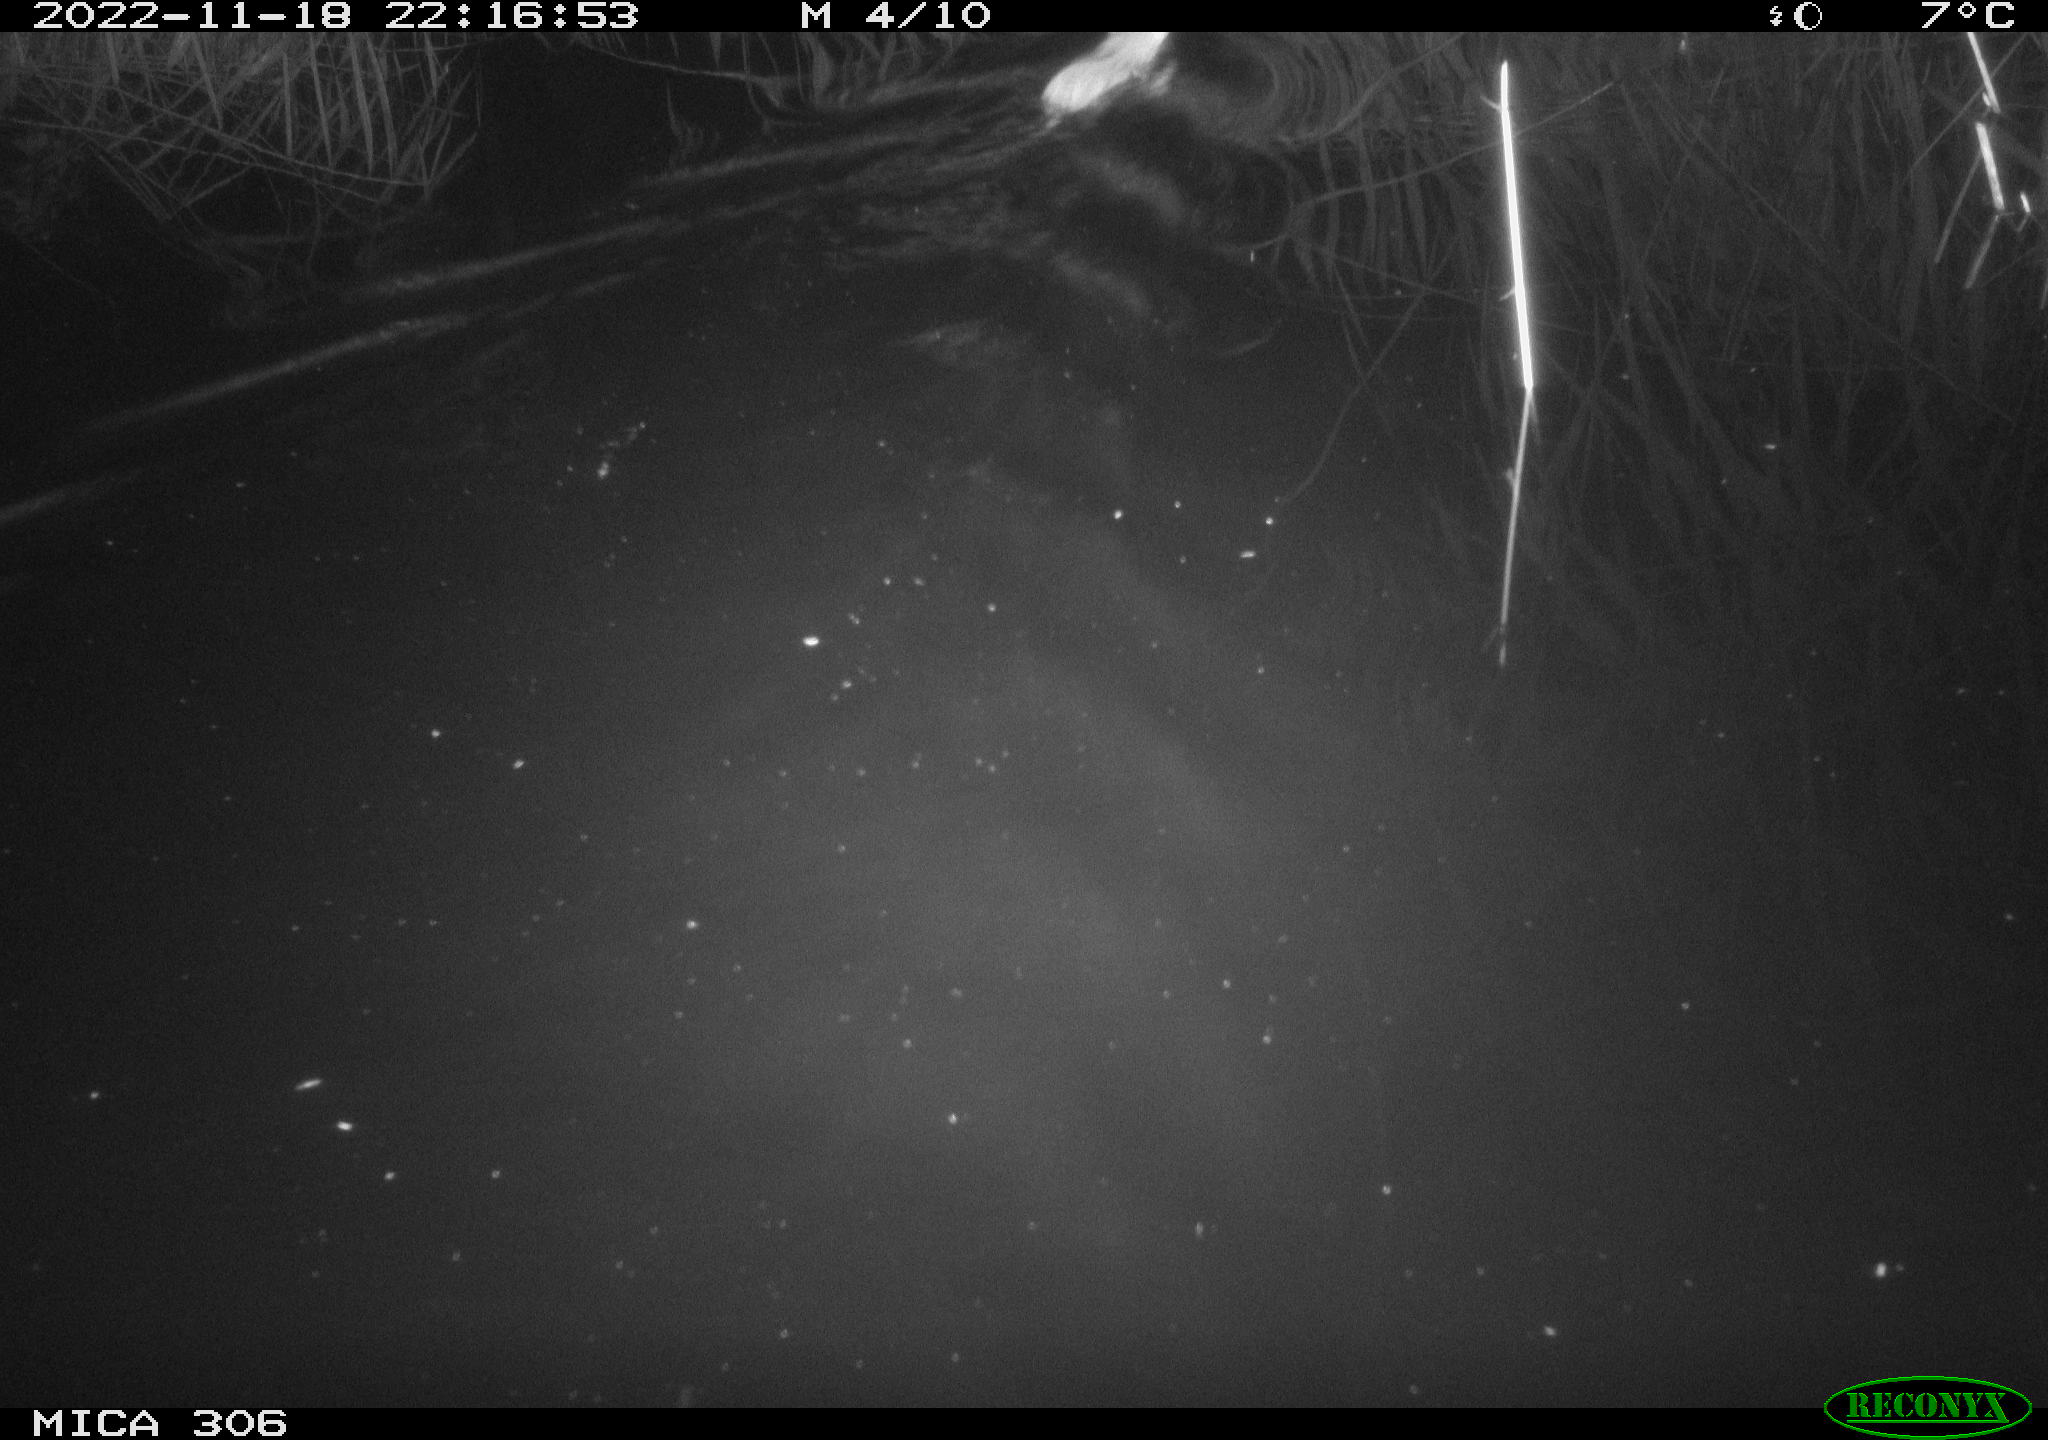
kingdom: Animalia
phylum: Chordata
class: Mammalia
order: Rodentia
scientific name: Rodentia
